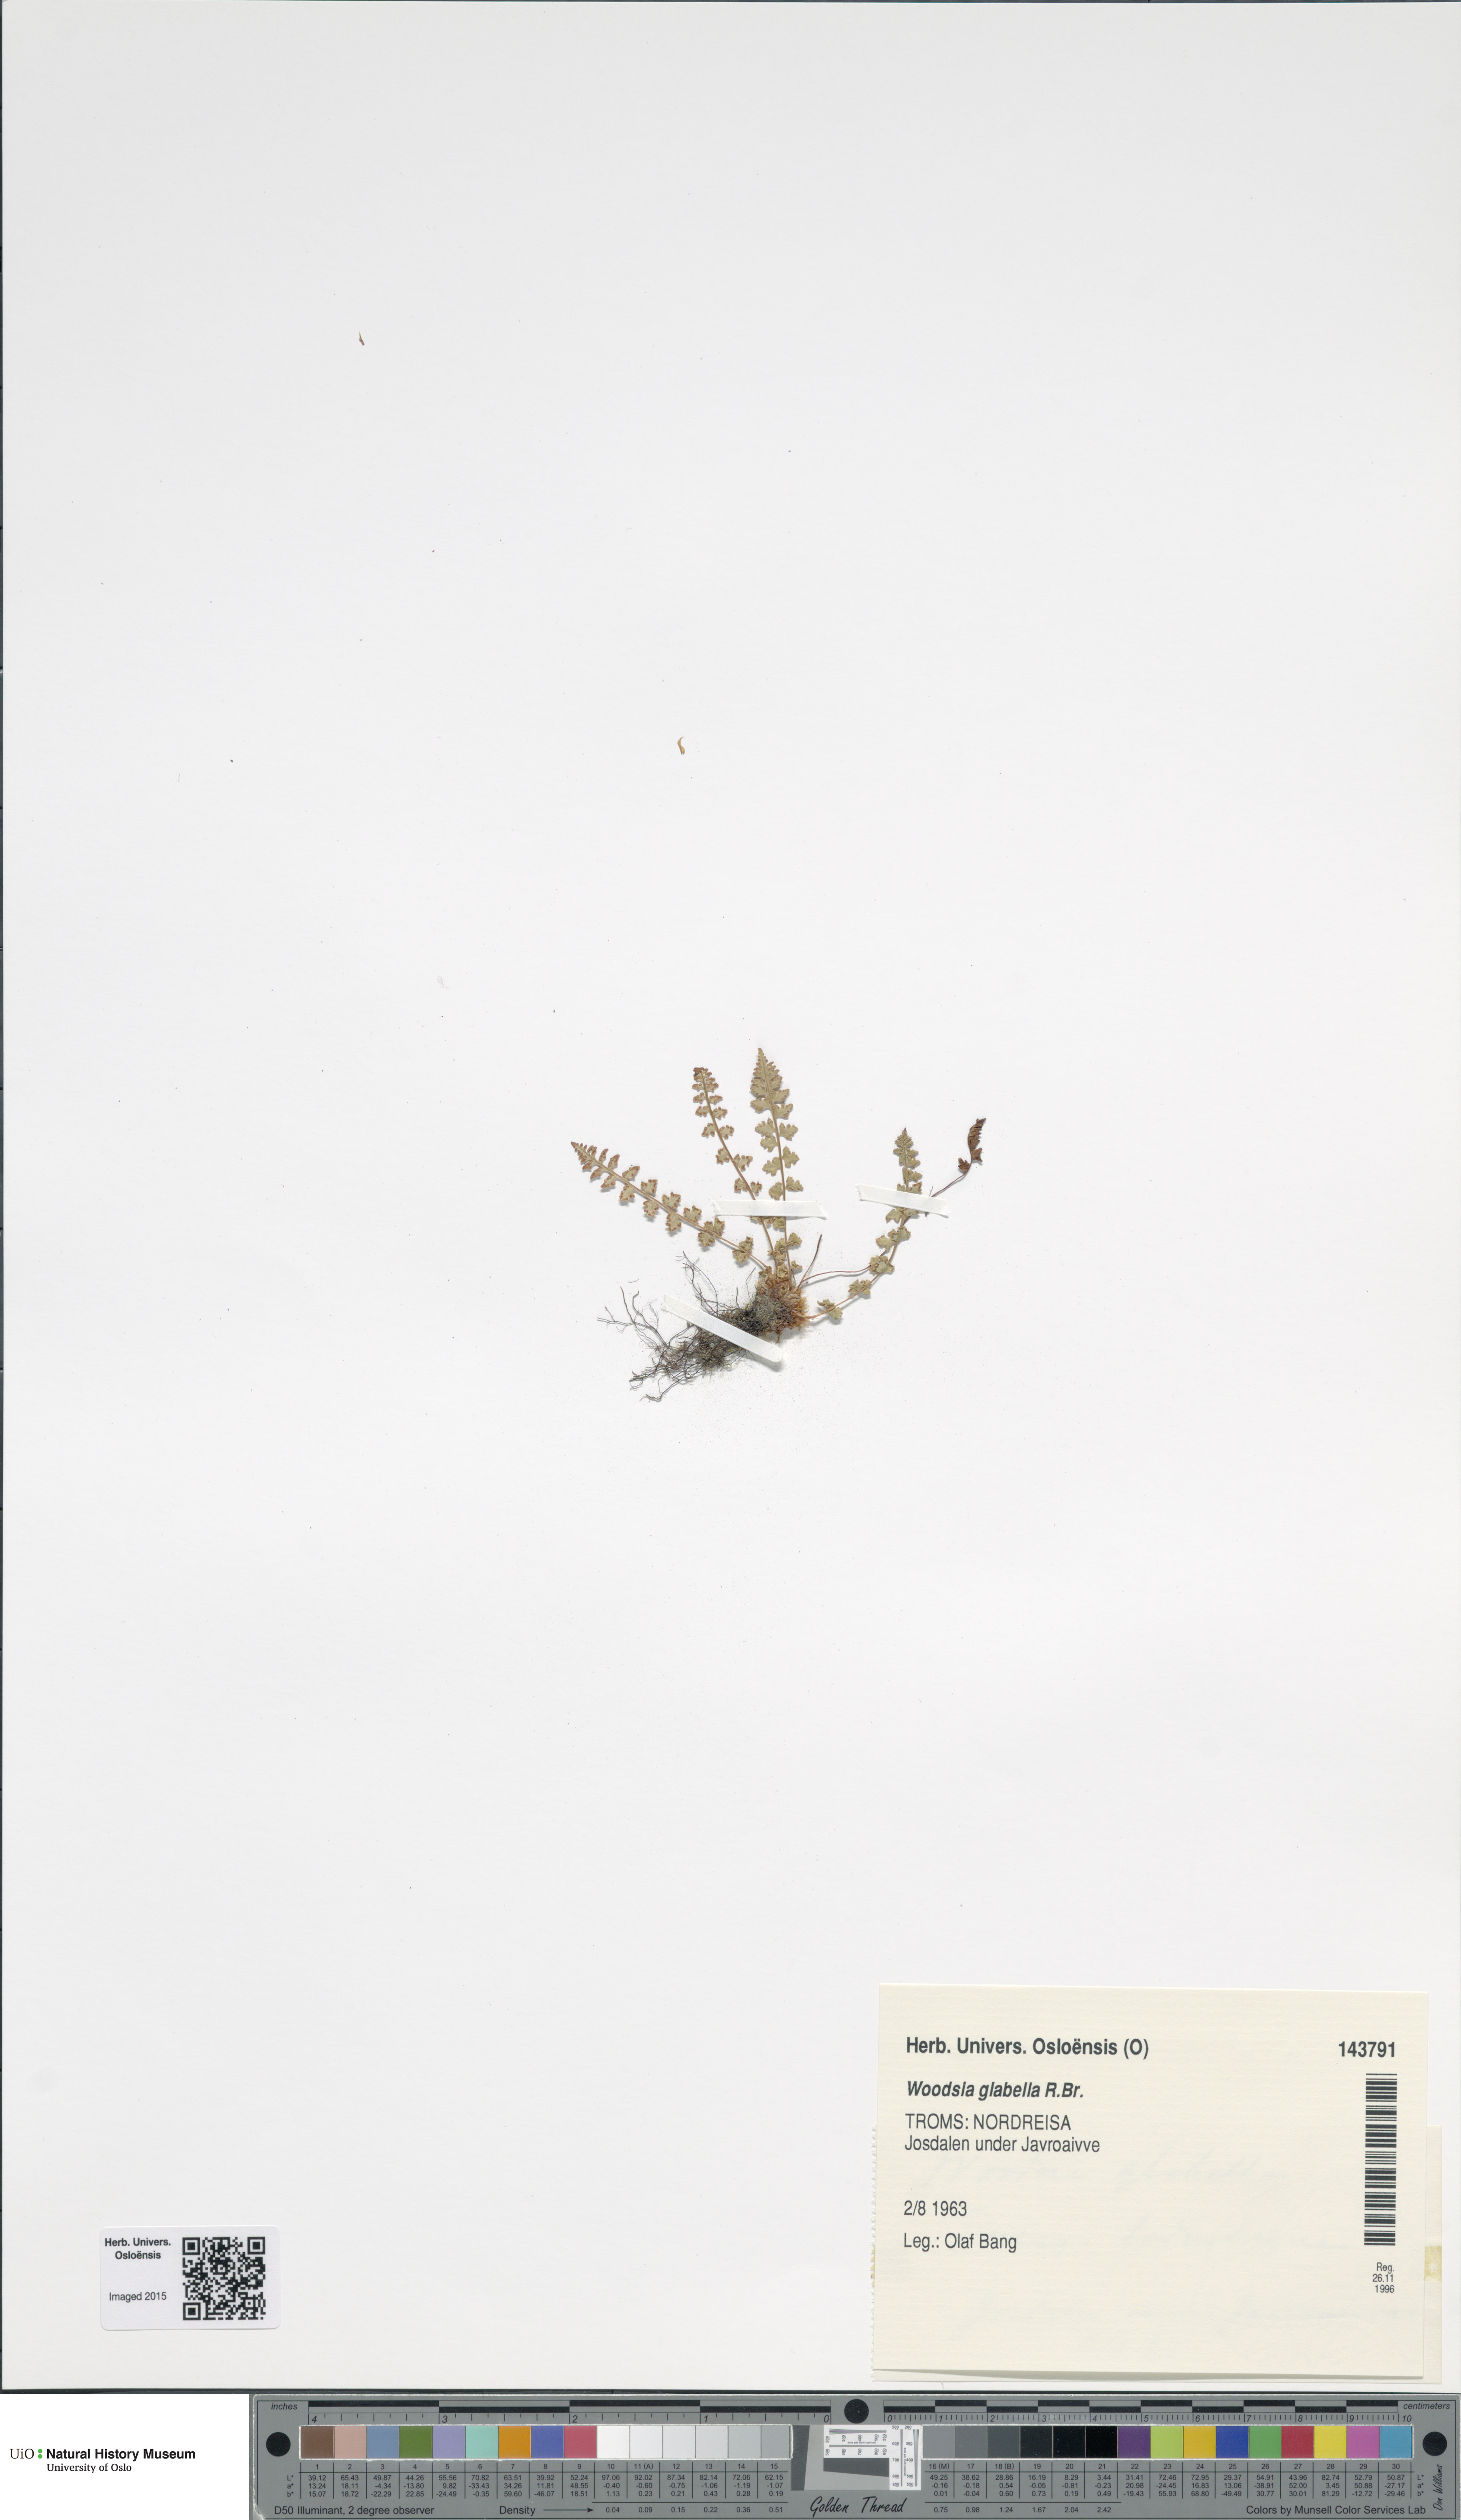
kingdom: Plantae
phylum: Tracheophyta
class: Polypodiopsida
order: Polypodiales
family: Woodsiaceae
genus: Woodsia
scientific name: Woodsia glabella
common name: Smooth woodsia
